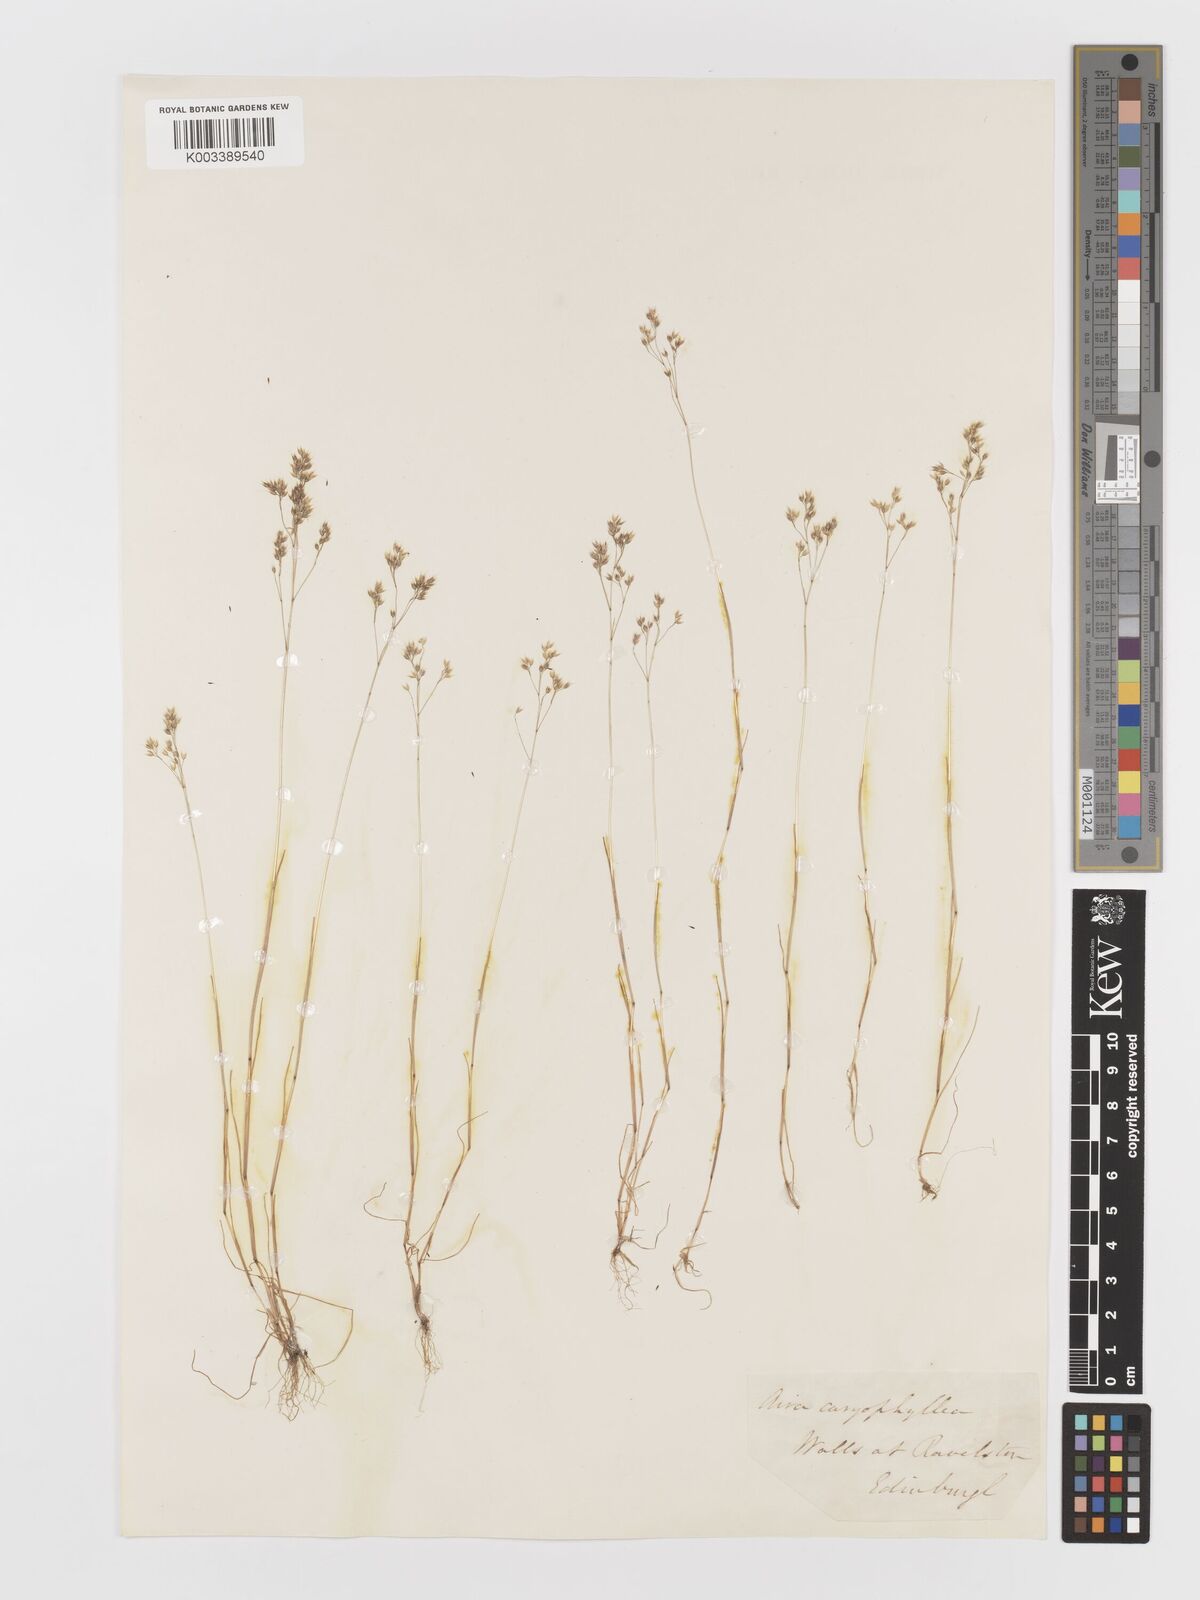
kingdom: Plantae
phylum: Tracheophyta
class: Liliopsida
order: Poales
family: Poaceae
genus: Aira
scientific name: Aira caryophyllea
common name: Silver hairgrass
